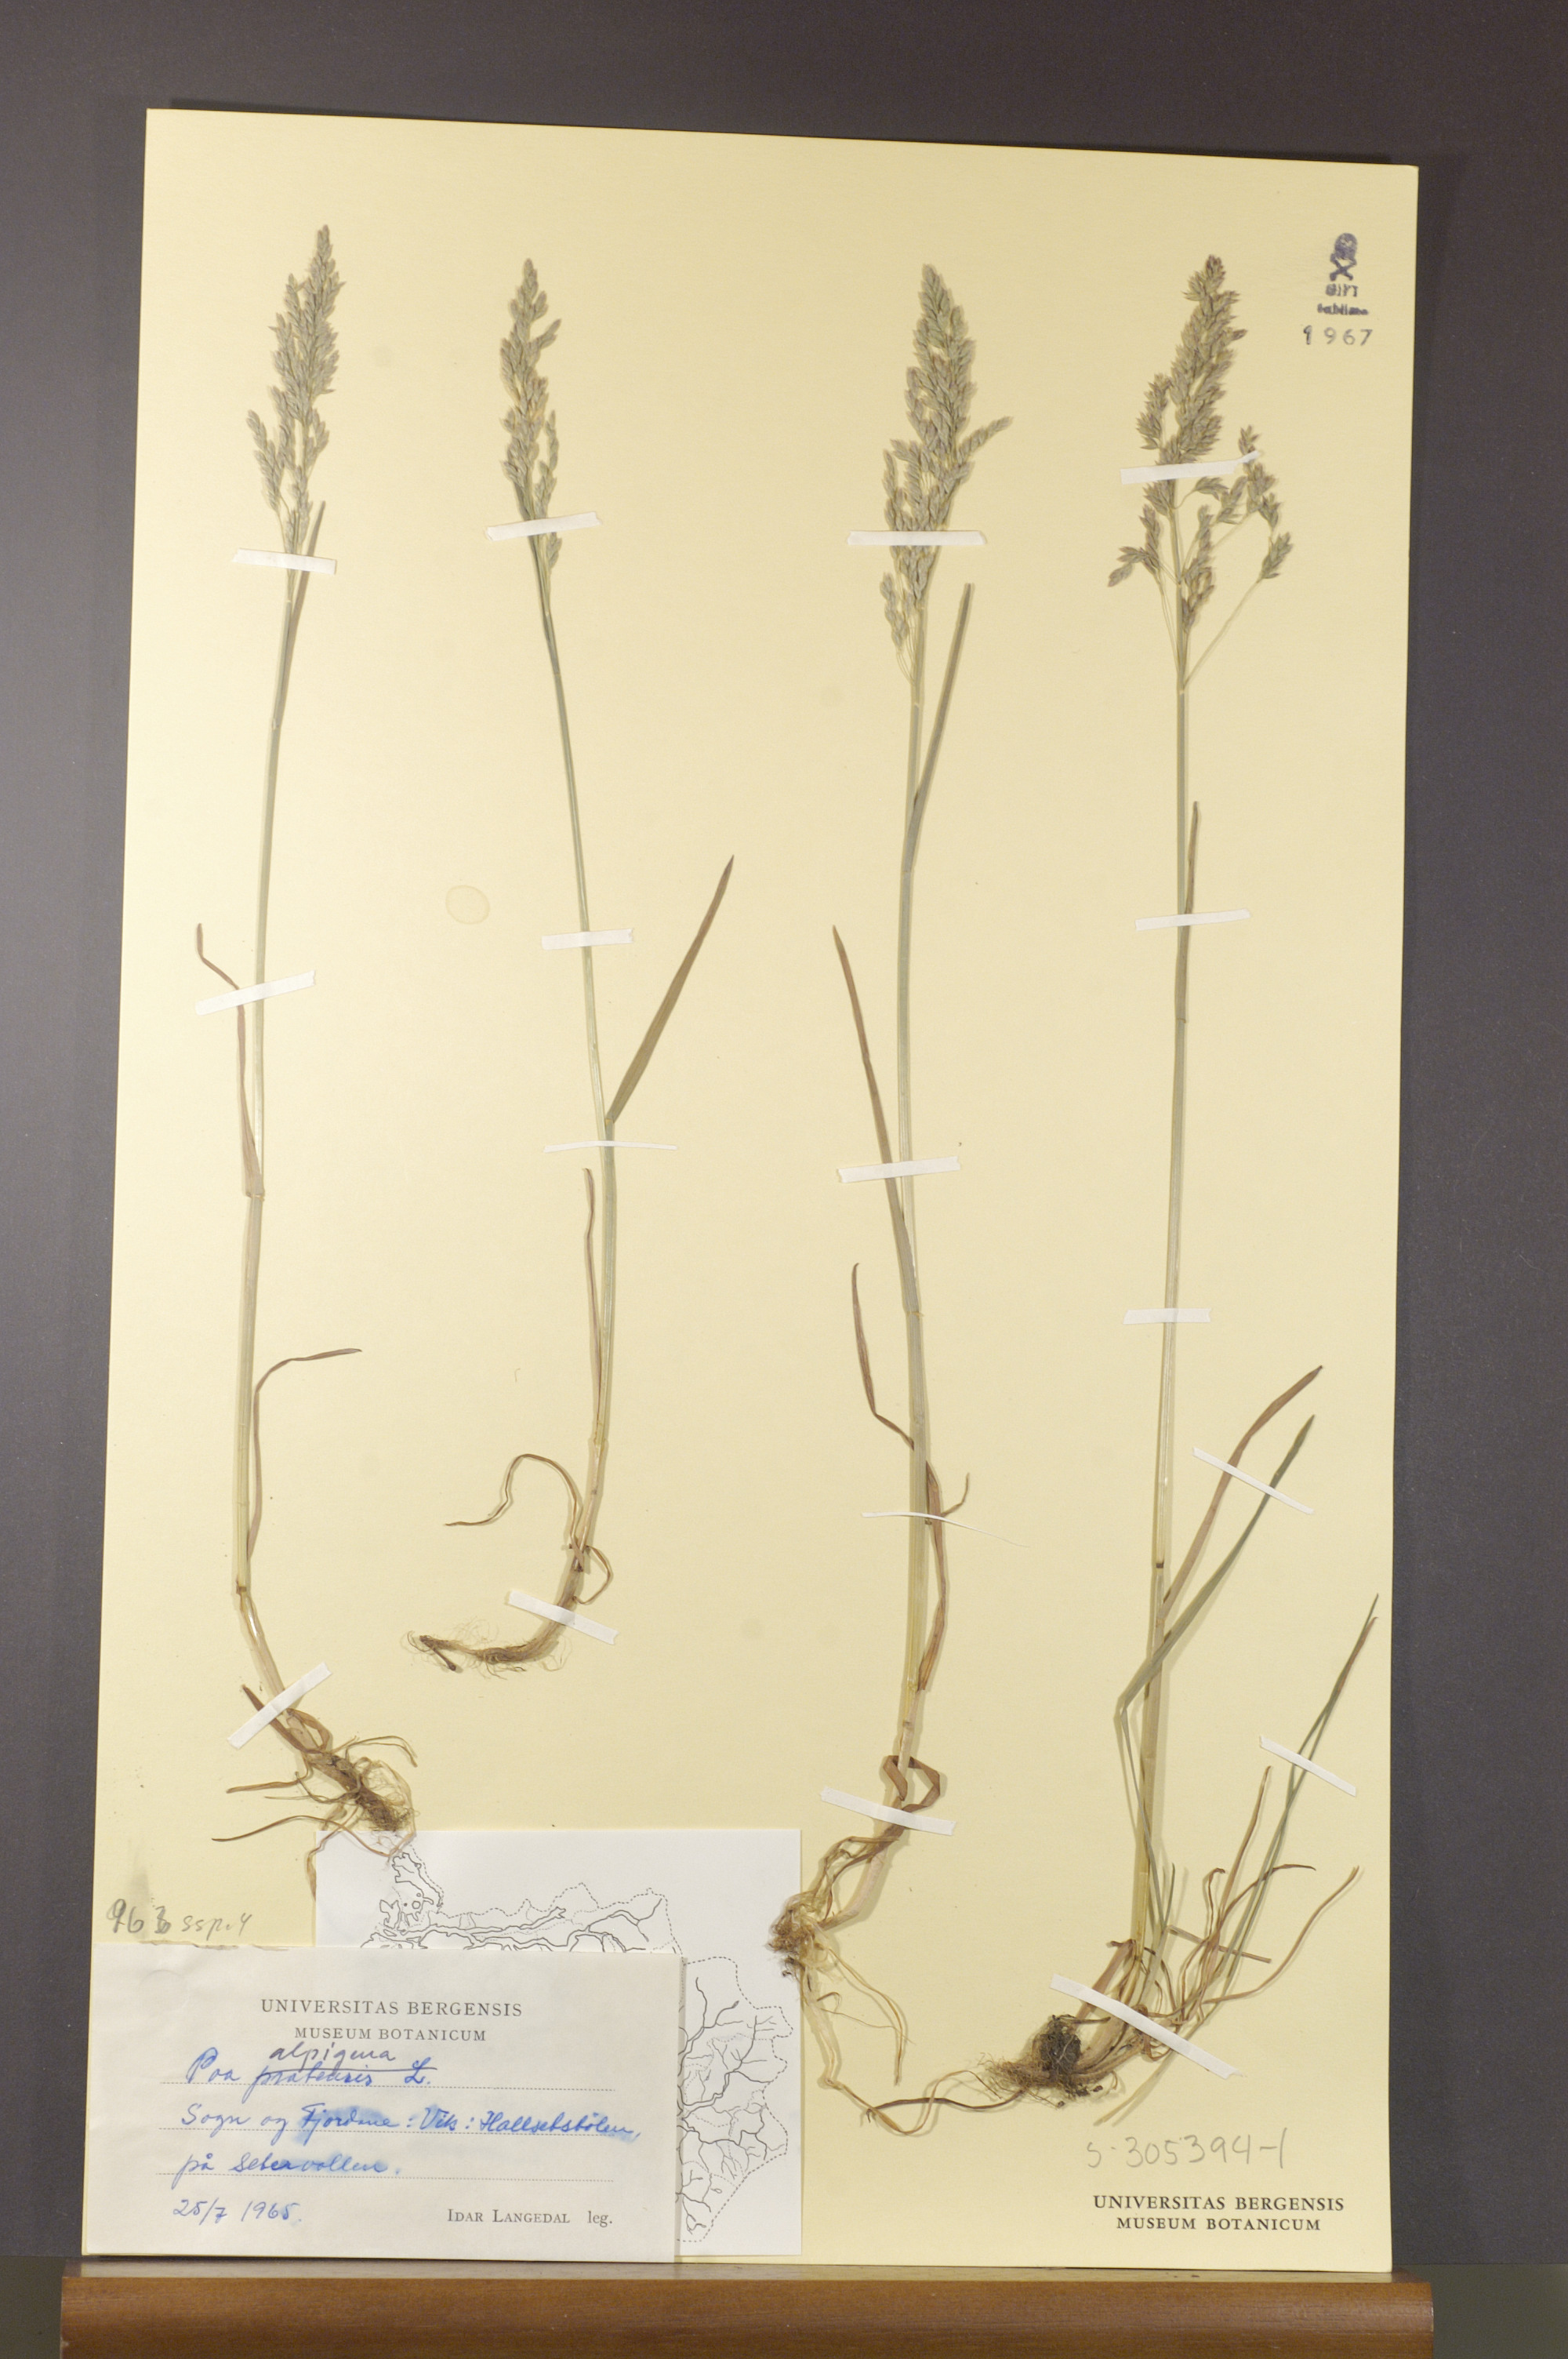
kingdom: Plantae
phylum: Tracheophyta
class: Liliopsida
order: Poales
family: Poaceae
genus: Poa
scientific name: Poa alpigena
